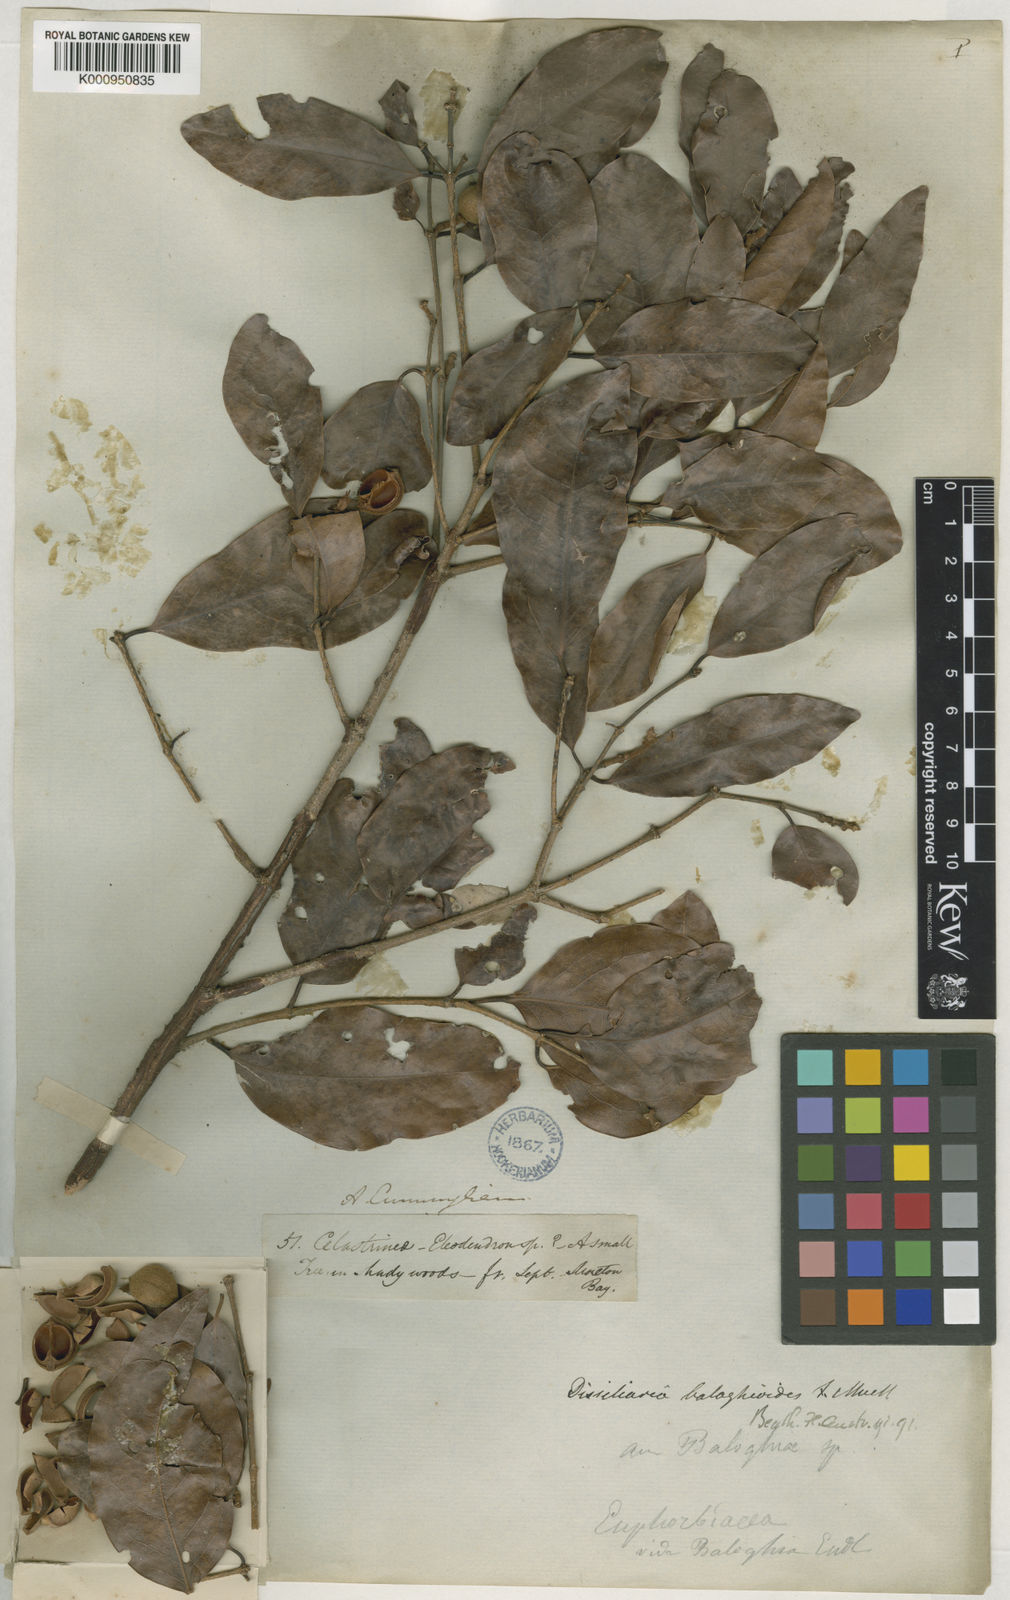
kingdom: Plantae
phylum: Tracheophyta
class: Magnoliopsida
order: Malpighiales
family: Picrodendraceae
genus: Dissiliaria
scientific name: Dissiliaria baloghioides
